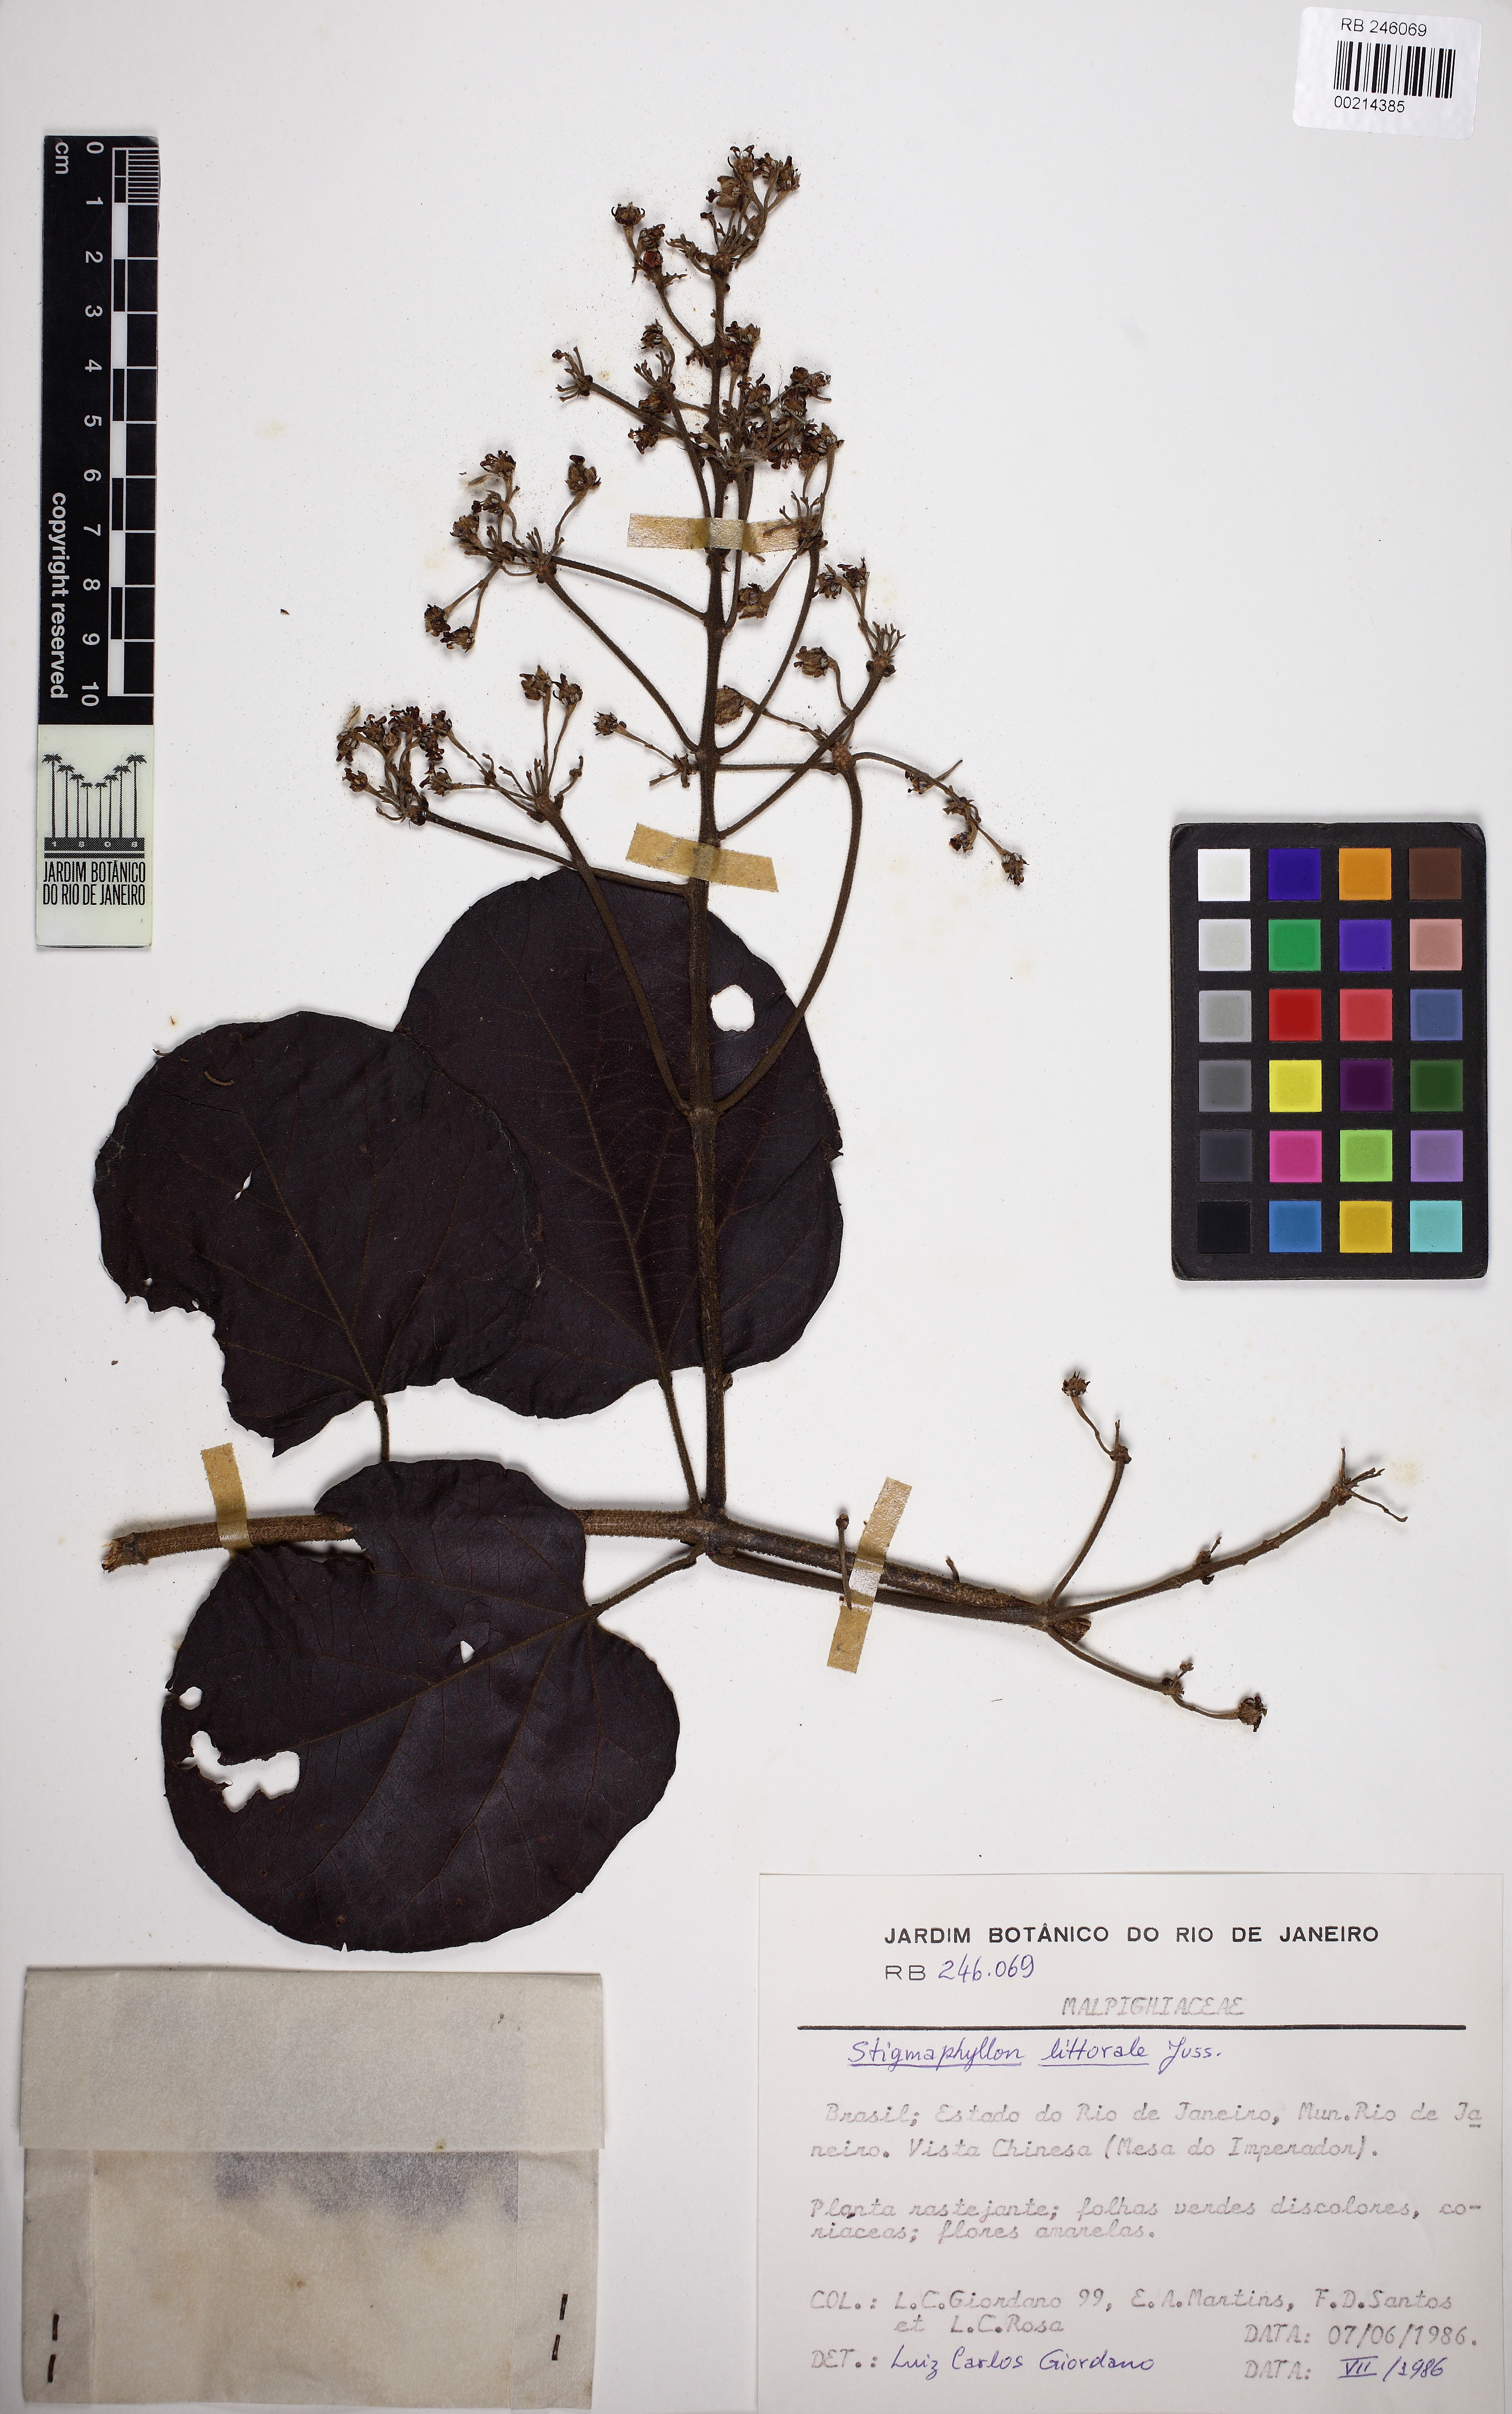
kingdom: Plantae
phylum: Tracheophyta
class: Magnoliopsida
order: Malpighiales
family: Malpighiaceae
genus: Stigmaphyllon
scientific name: Stigmaphyllon bonariense
